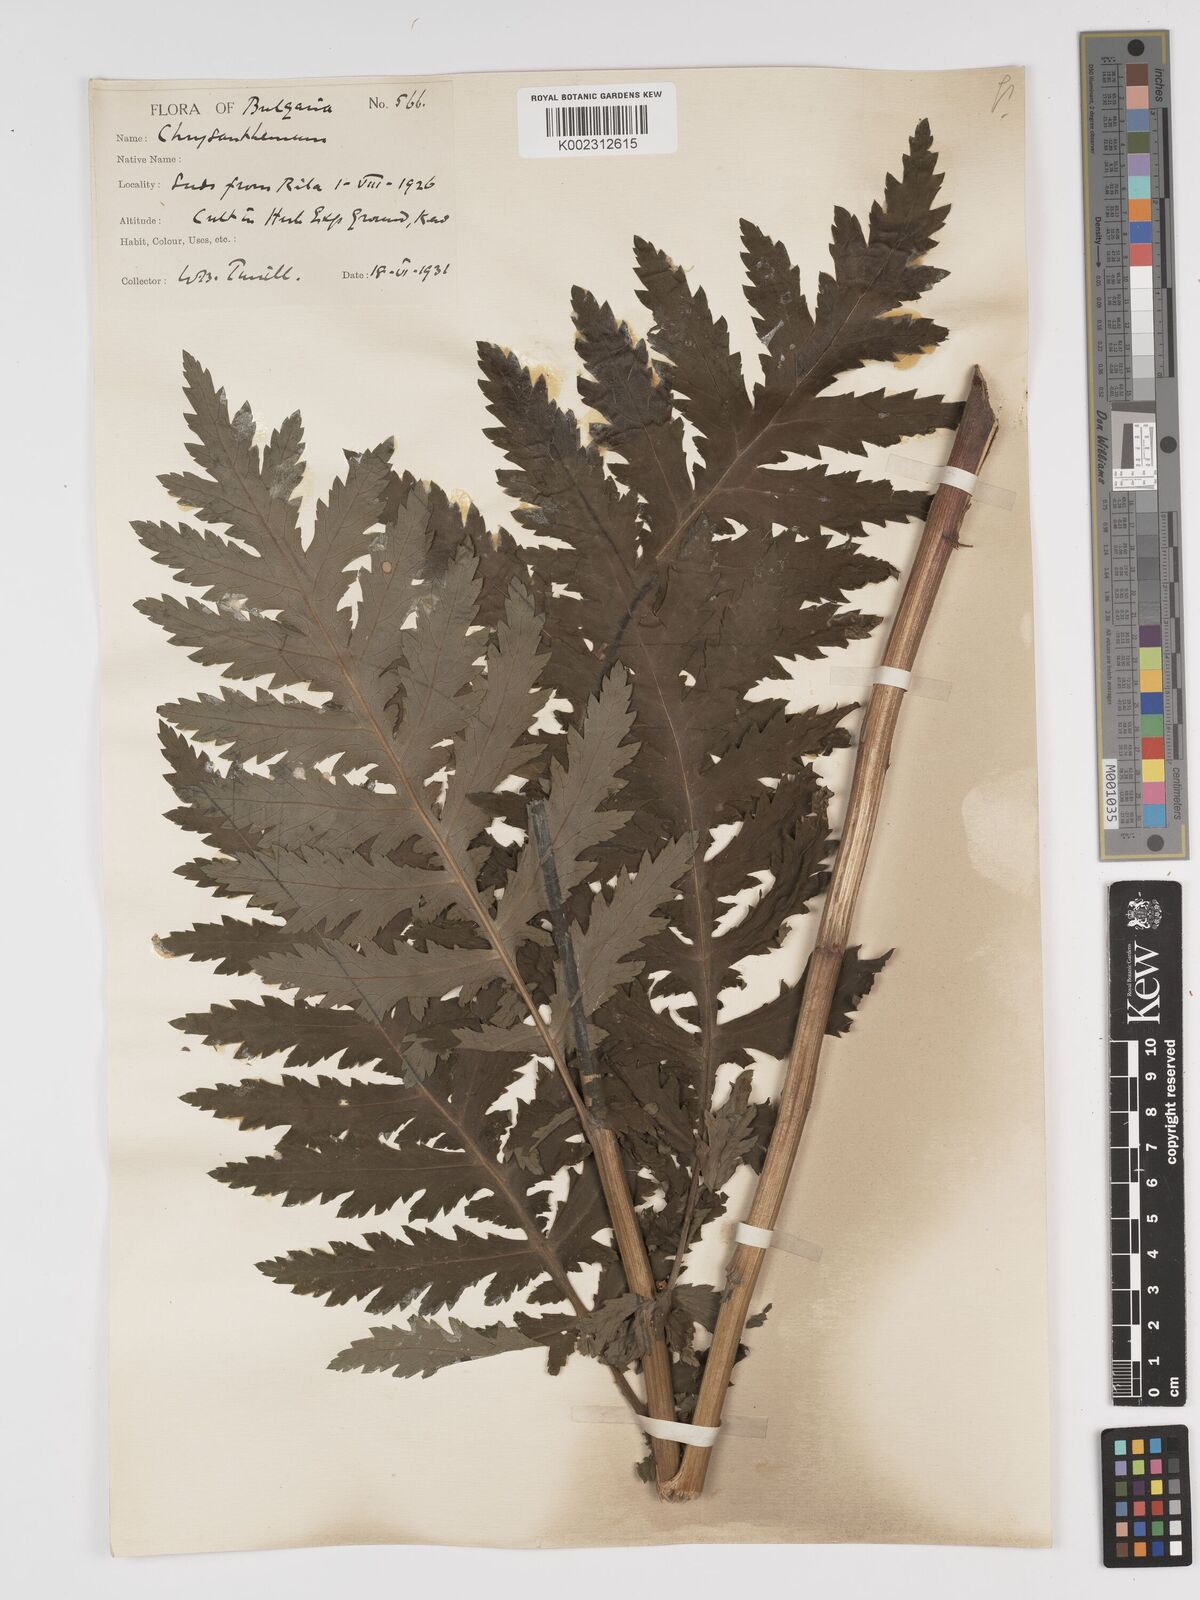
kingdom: Plantae
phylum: Tracheophyta
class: Magnoliopsida
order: Asterales
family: Asteraceae
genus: Tanacetum
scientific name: Tanacetum macrophyllum
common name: Rayed tansy
